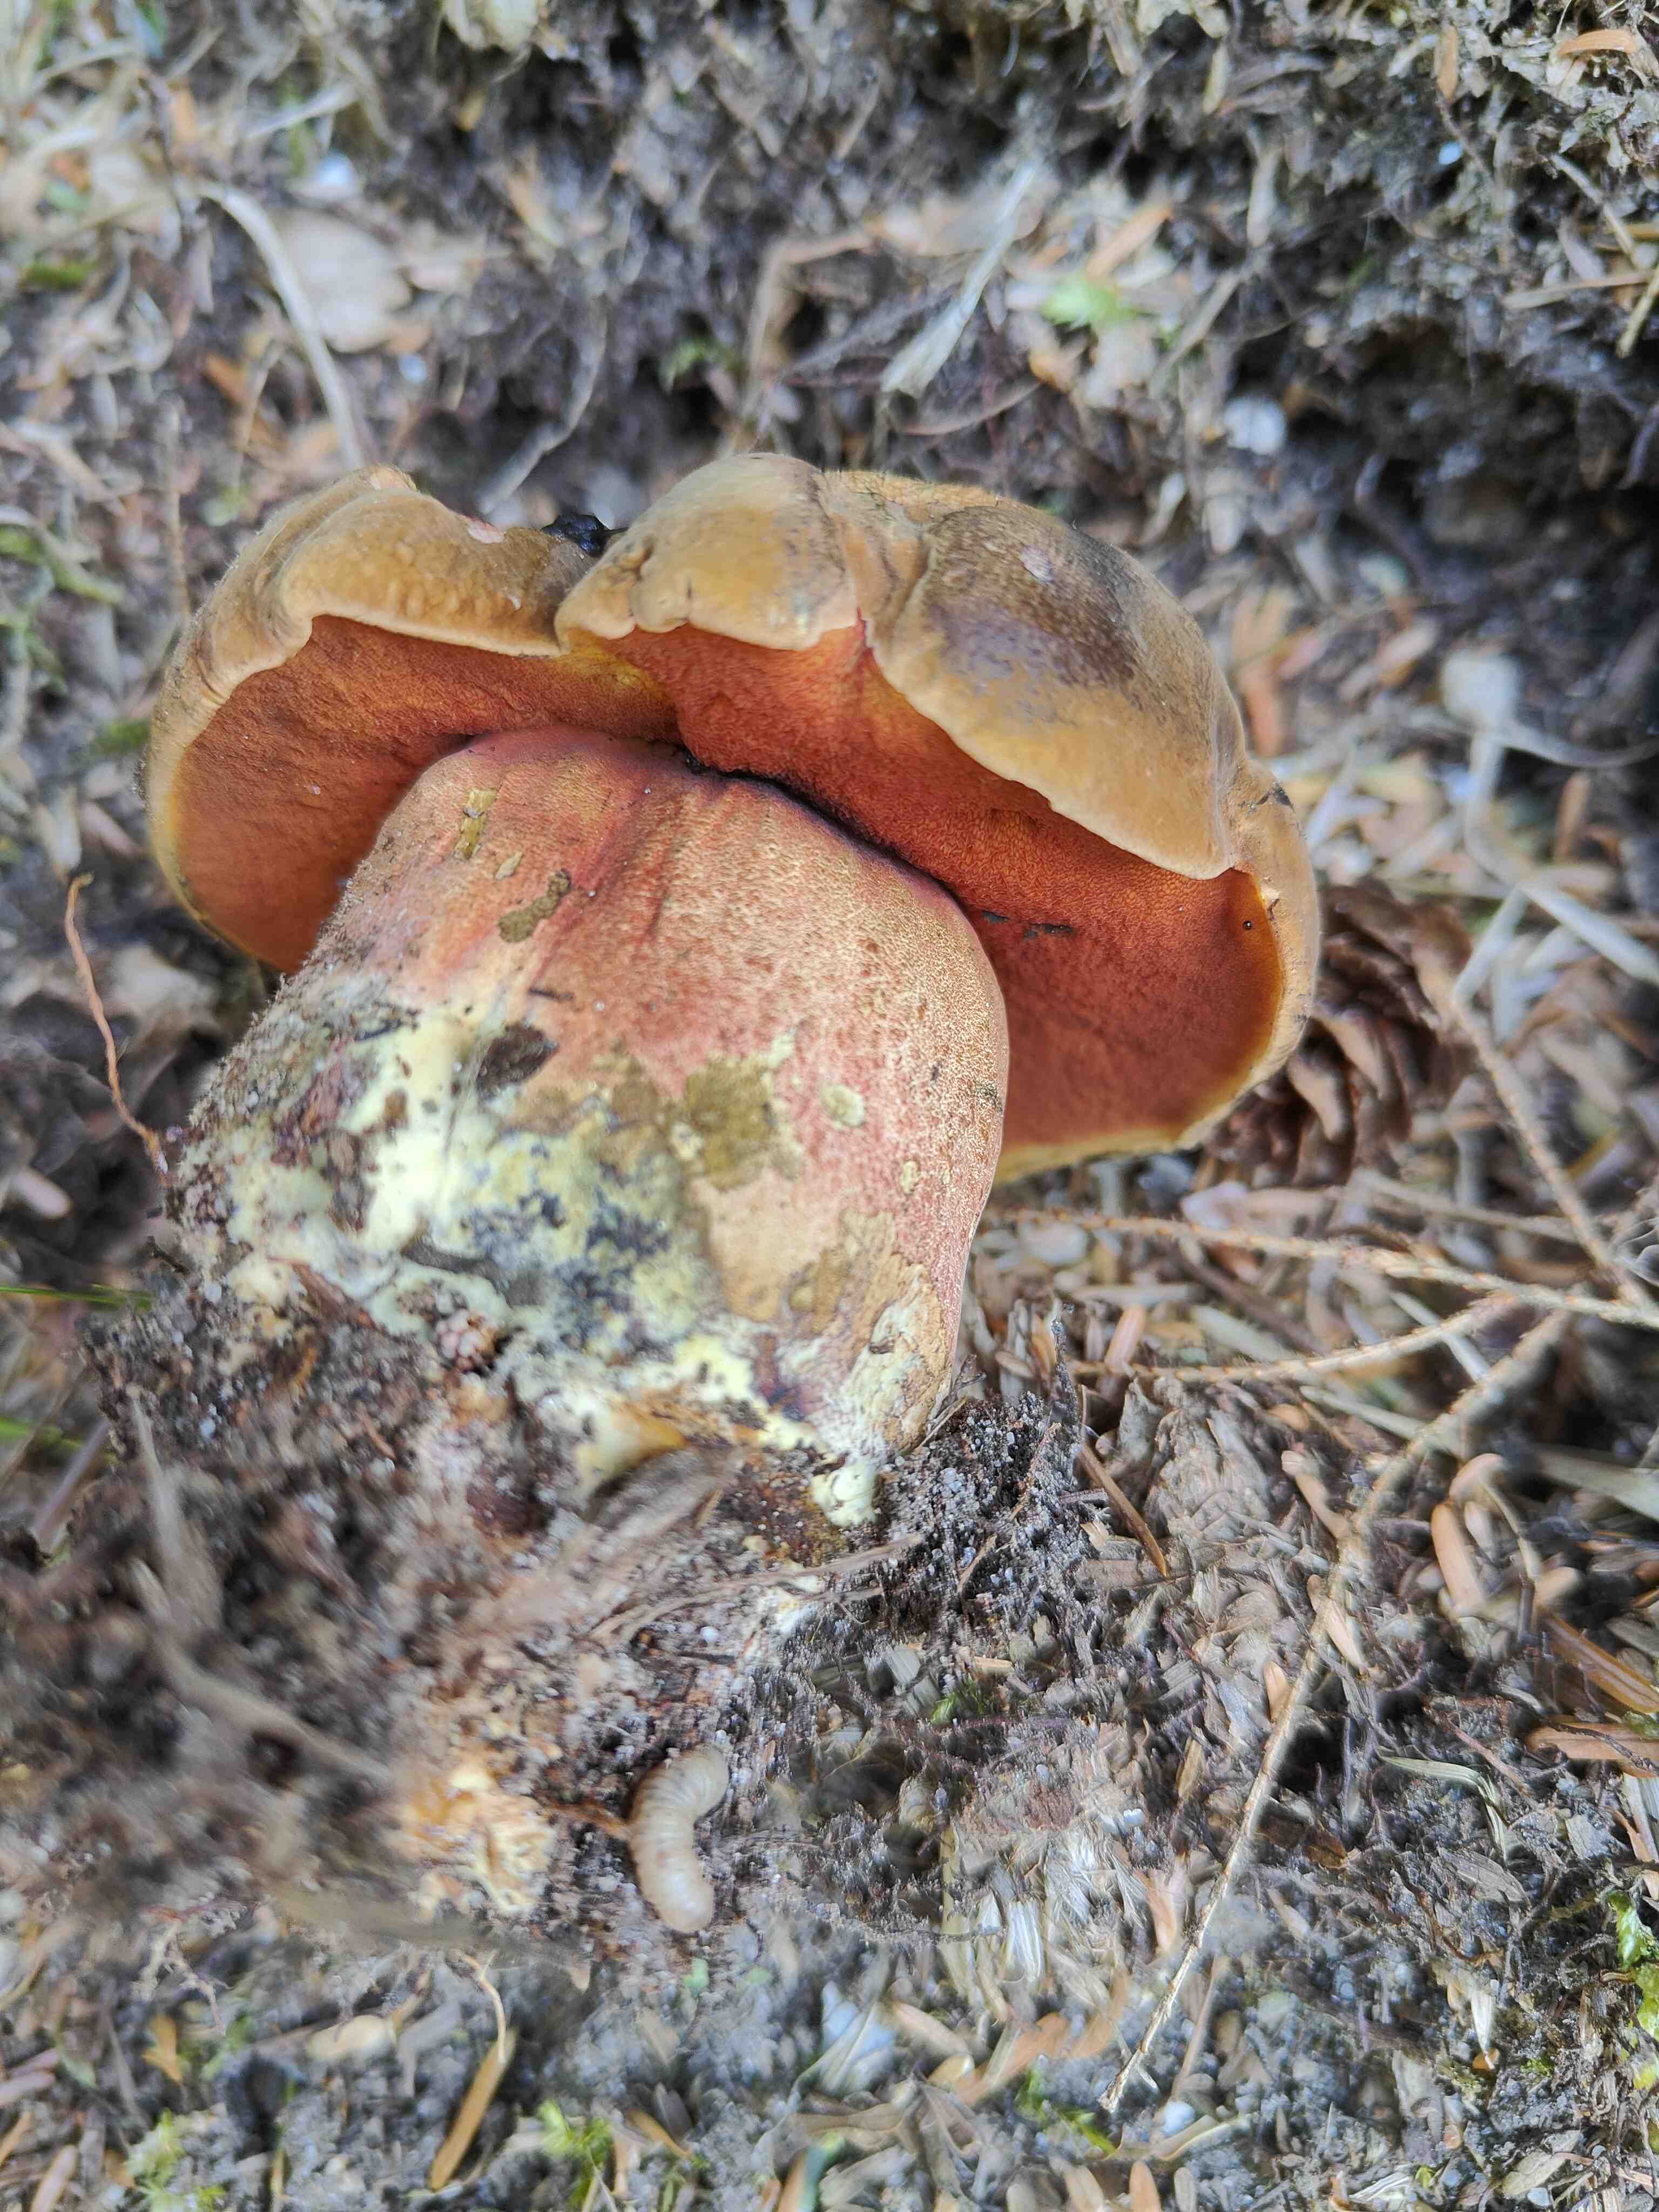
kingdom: Fungi
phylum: Basidiomycota
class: Agaricomycetes
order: Boletales
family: Boletaceae
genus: Neoboletus
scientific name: Neoboletus erythropus
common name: punktstokket indigorørhat
